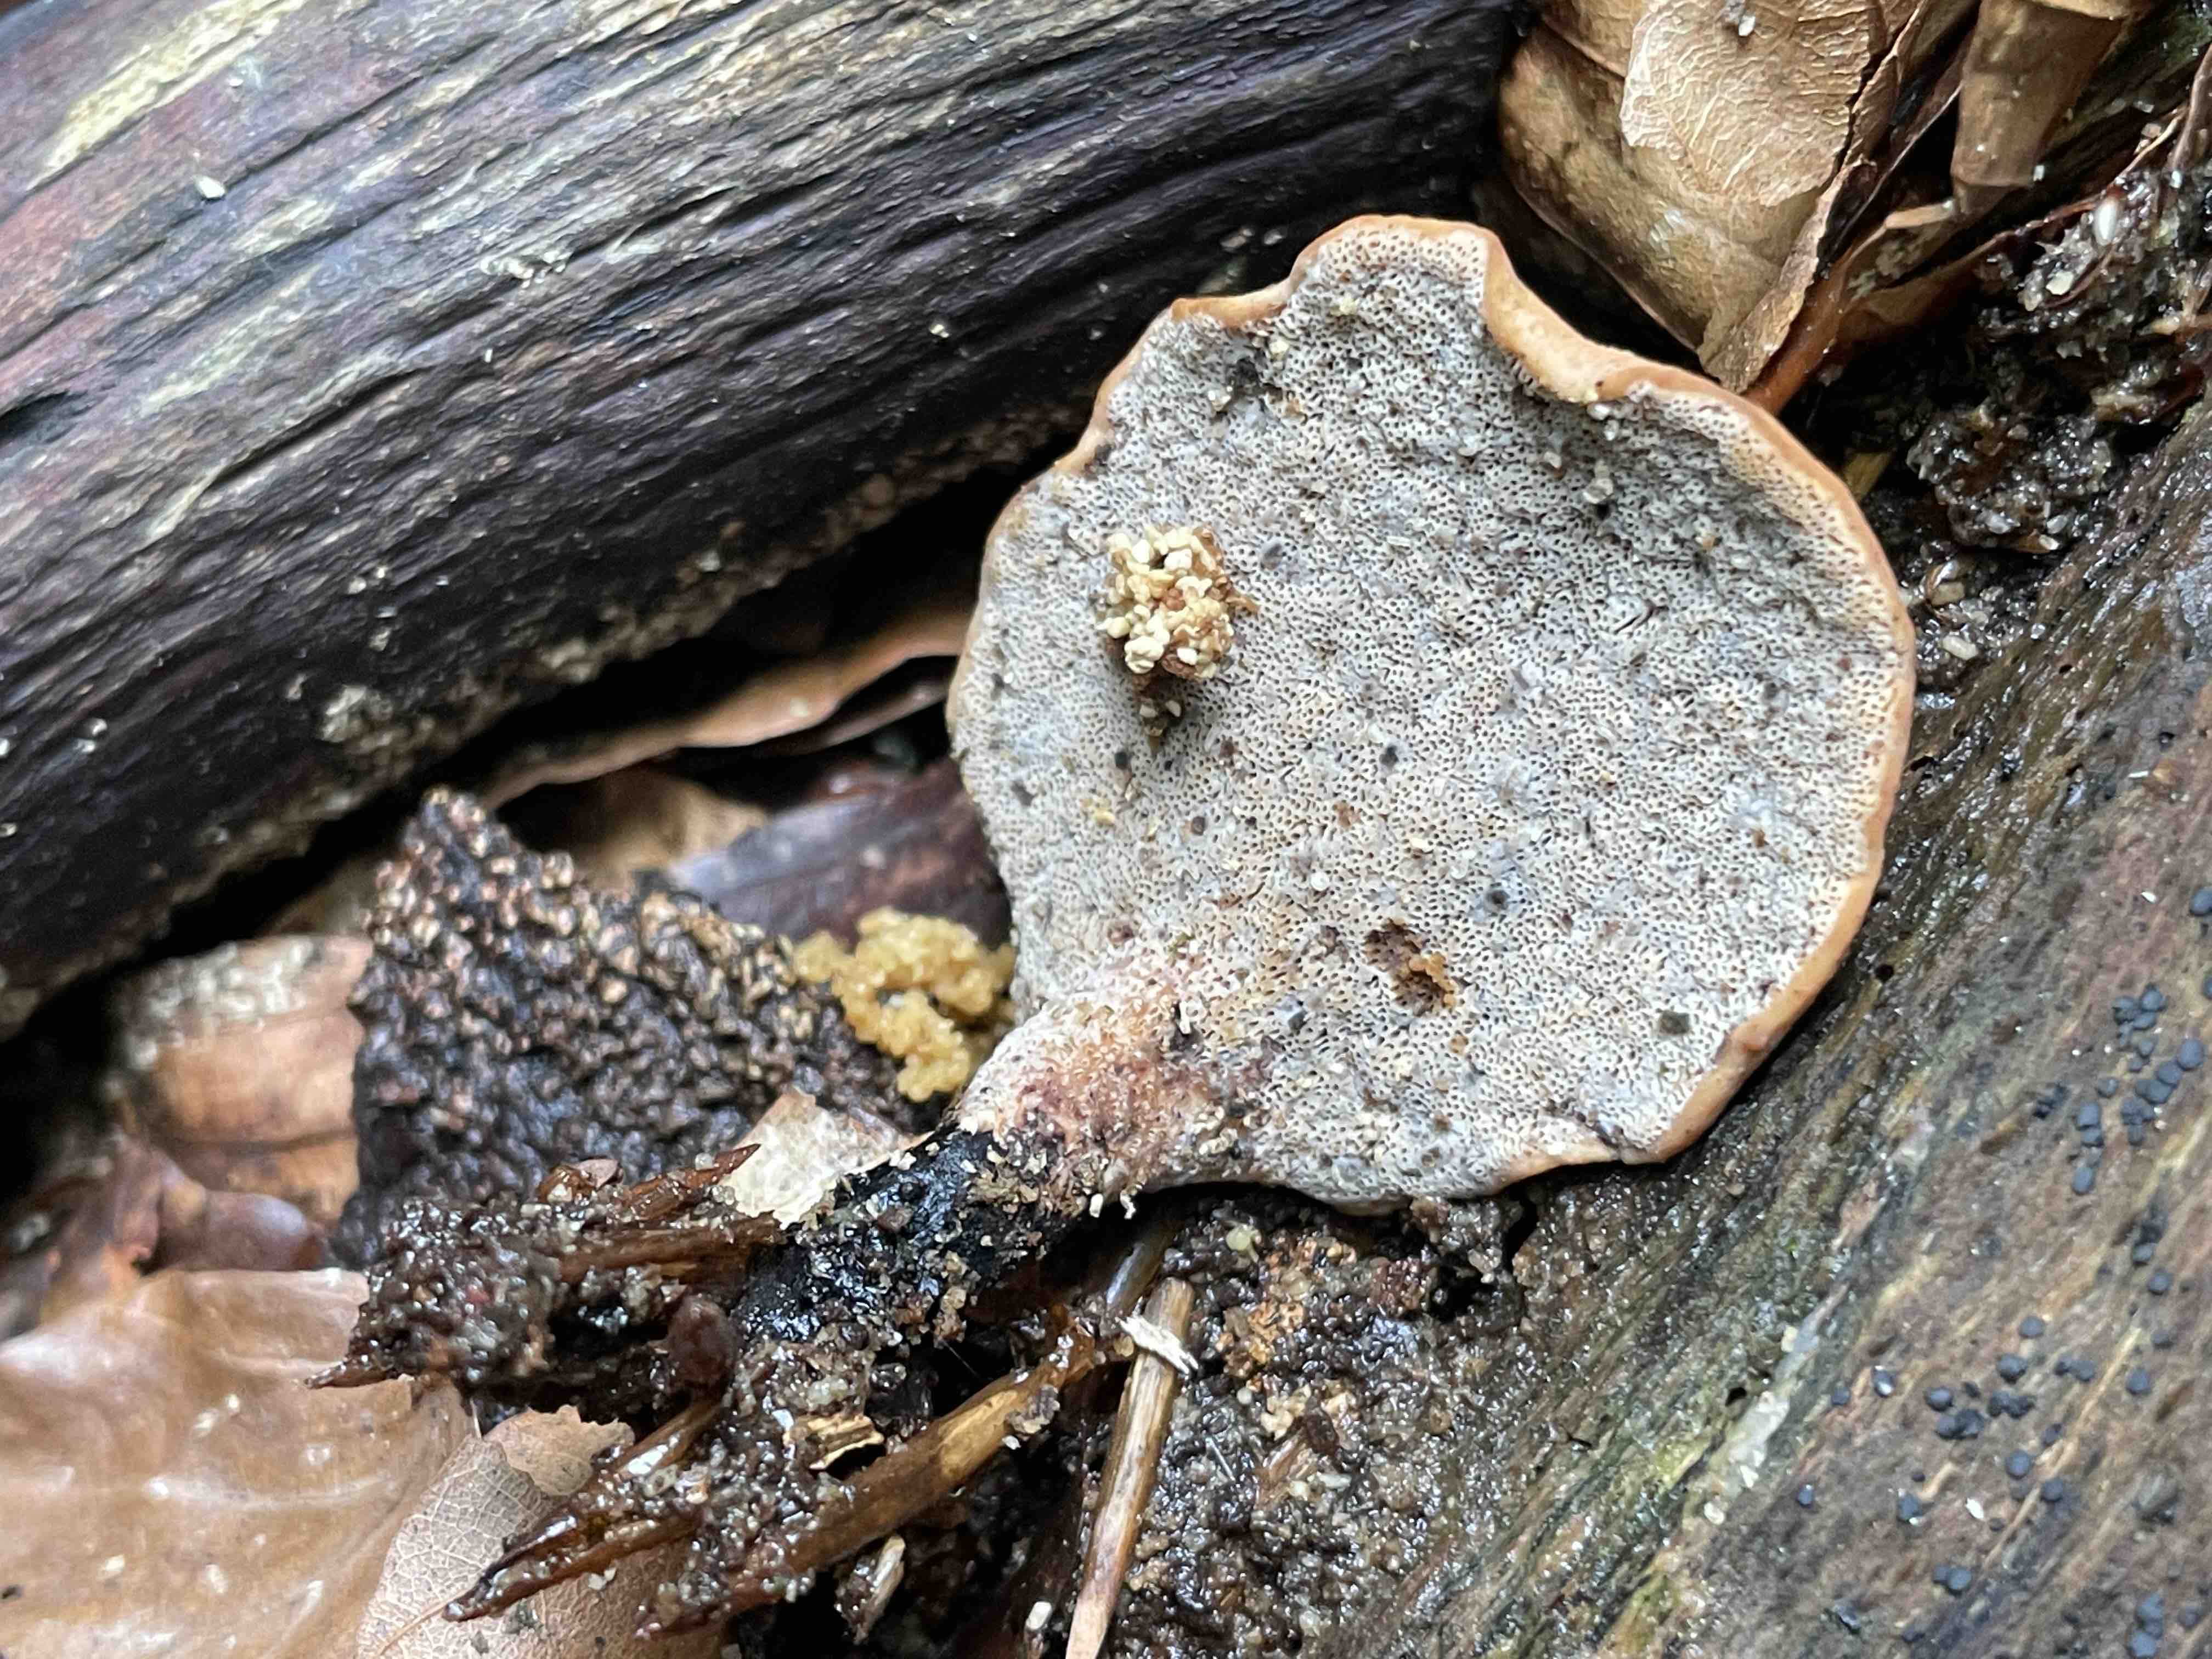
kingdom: Fungi
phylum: Basidiomycota
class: Agaricomycetes
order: Polyporales
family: Polyporaceae
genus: Cerioporus
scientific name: Cerioporus varius
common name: foranderlig stilkporesvamp
